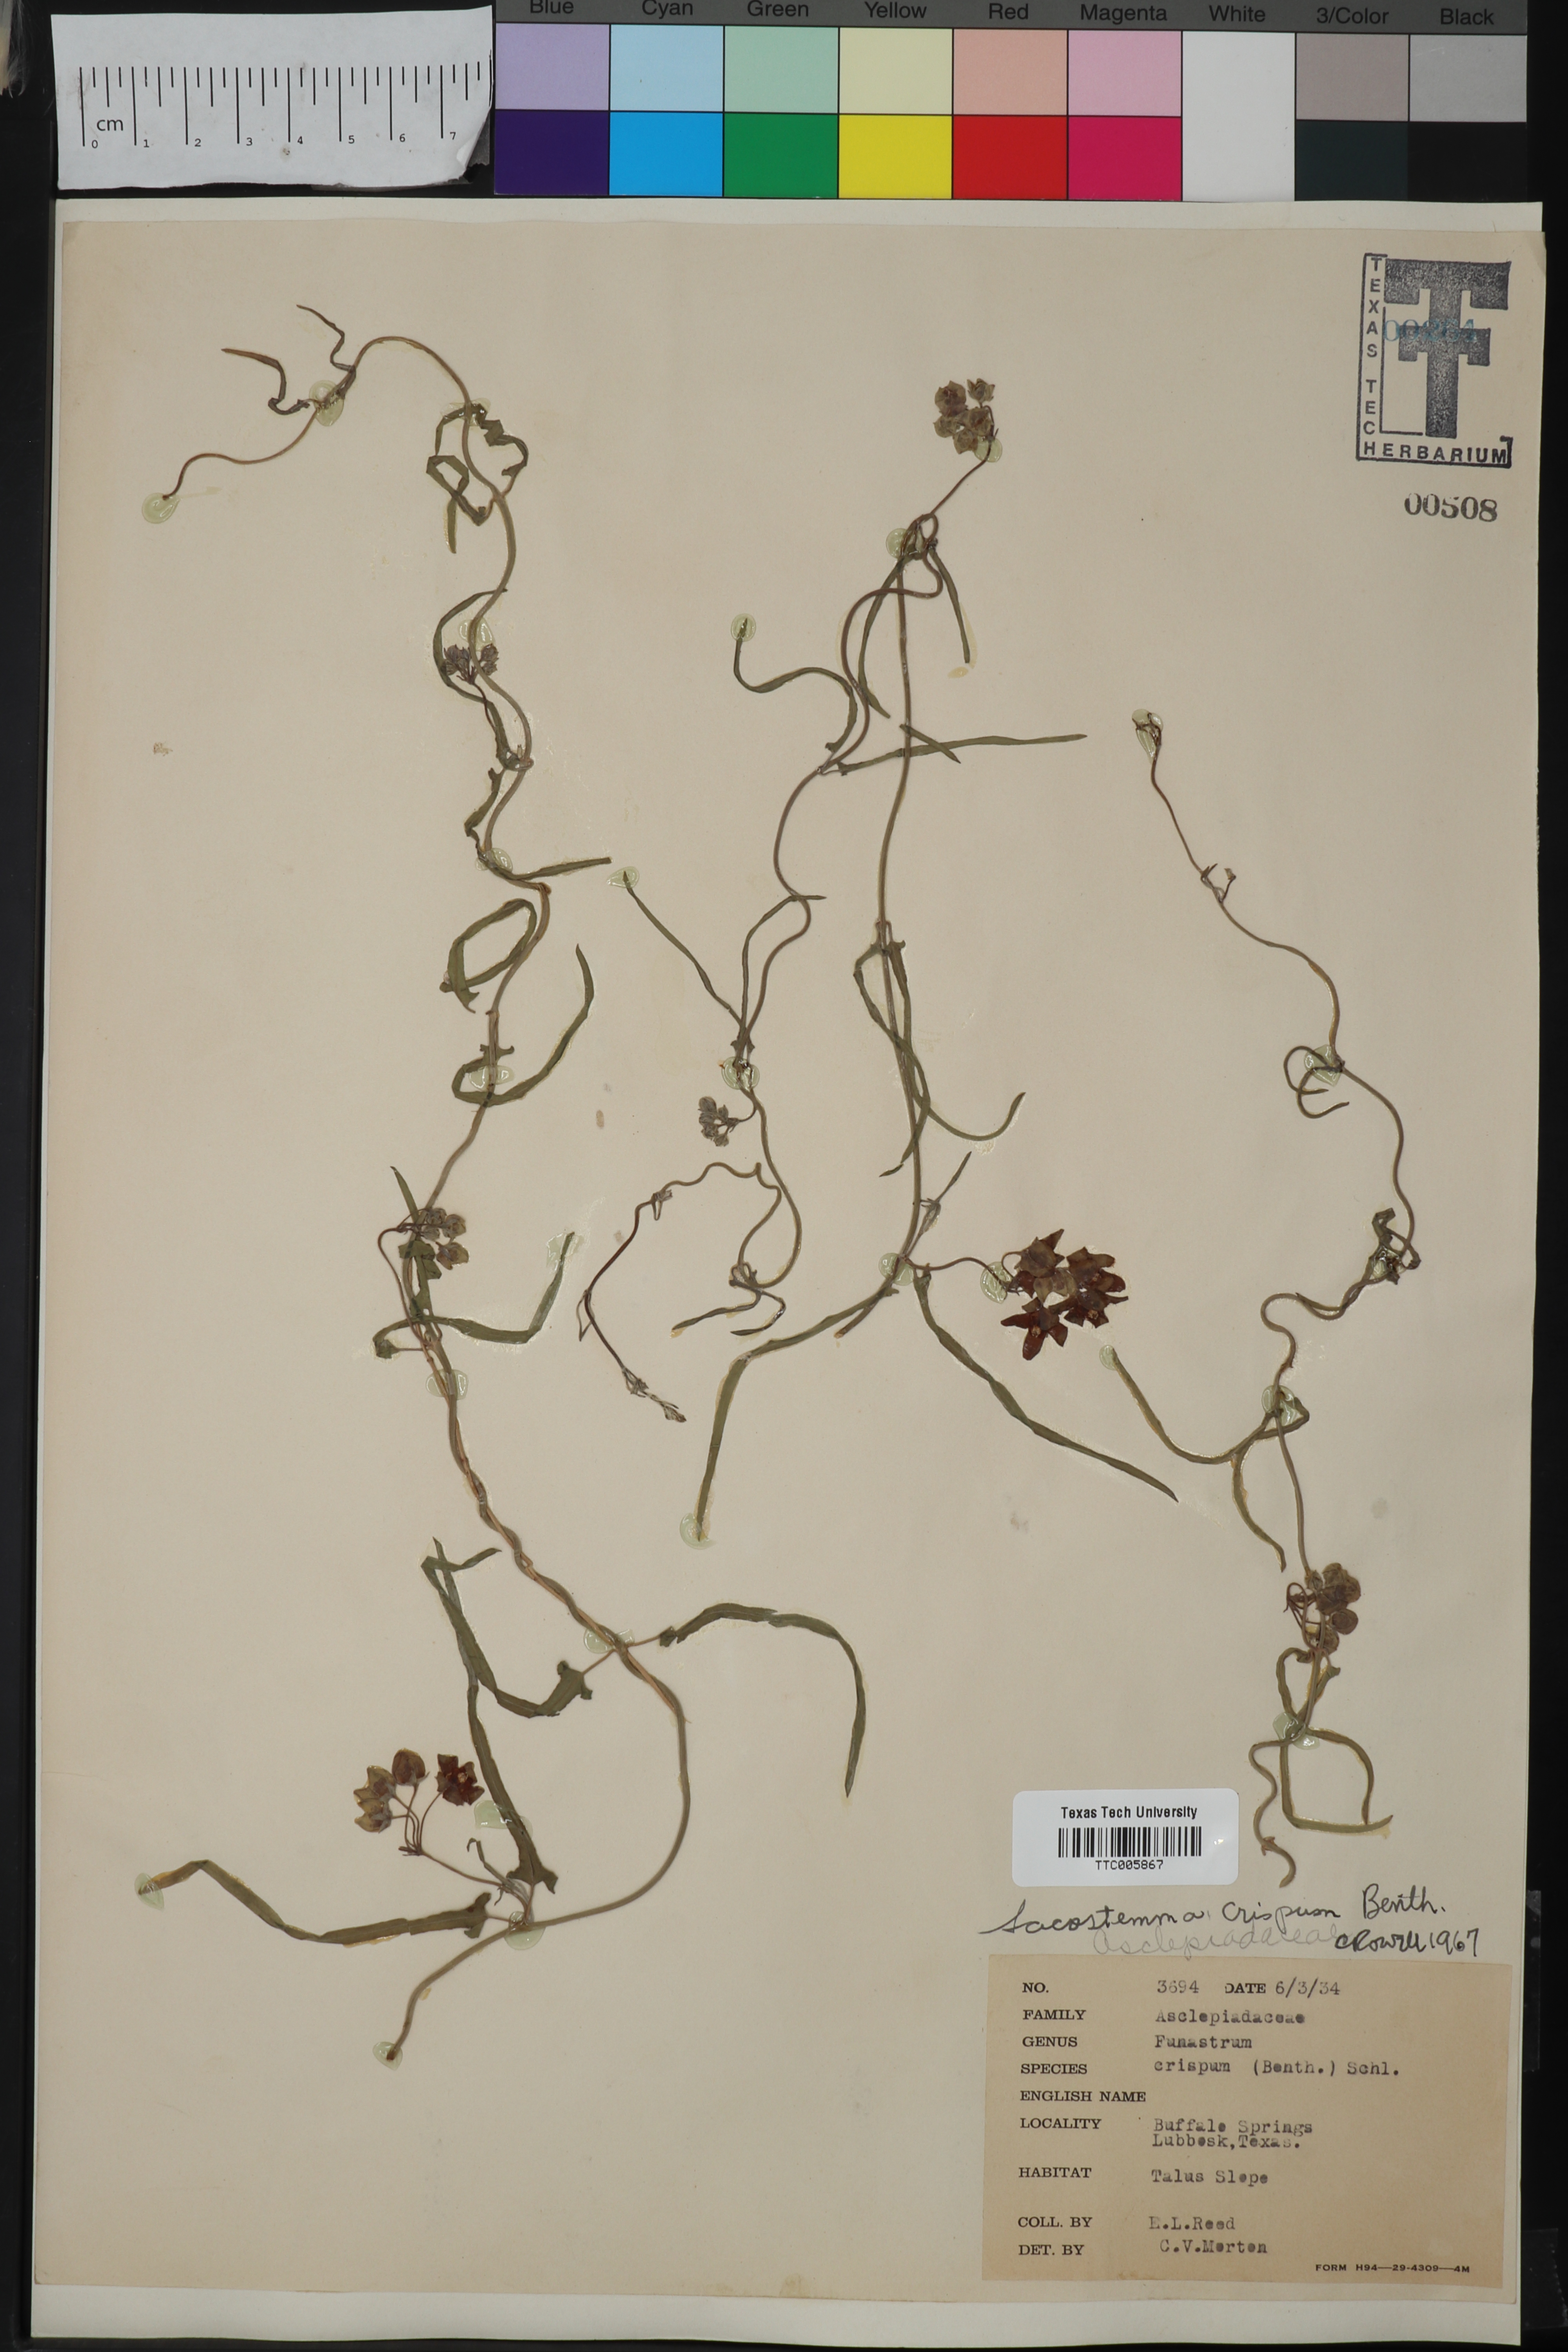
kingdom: Plantae
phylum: Tracheophyta
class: Magnoliopsida
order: Gentianales
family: Apocynaceae
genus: Funastrum
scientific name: Funastrum crispum
